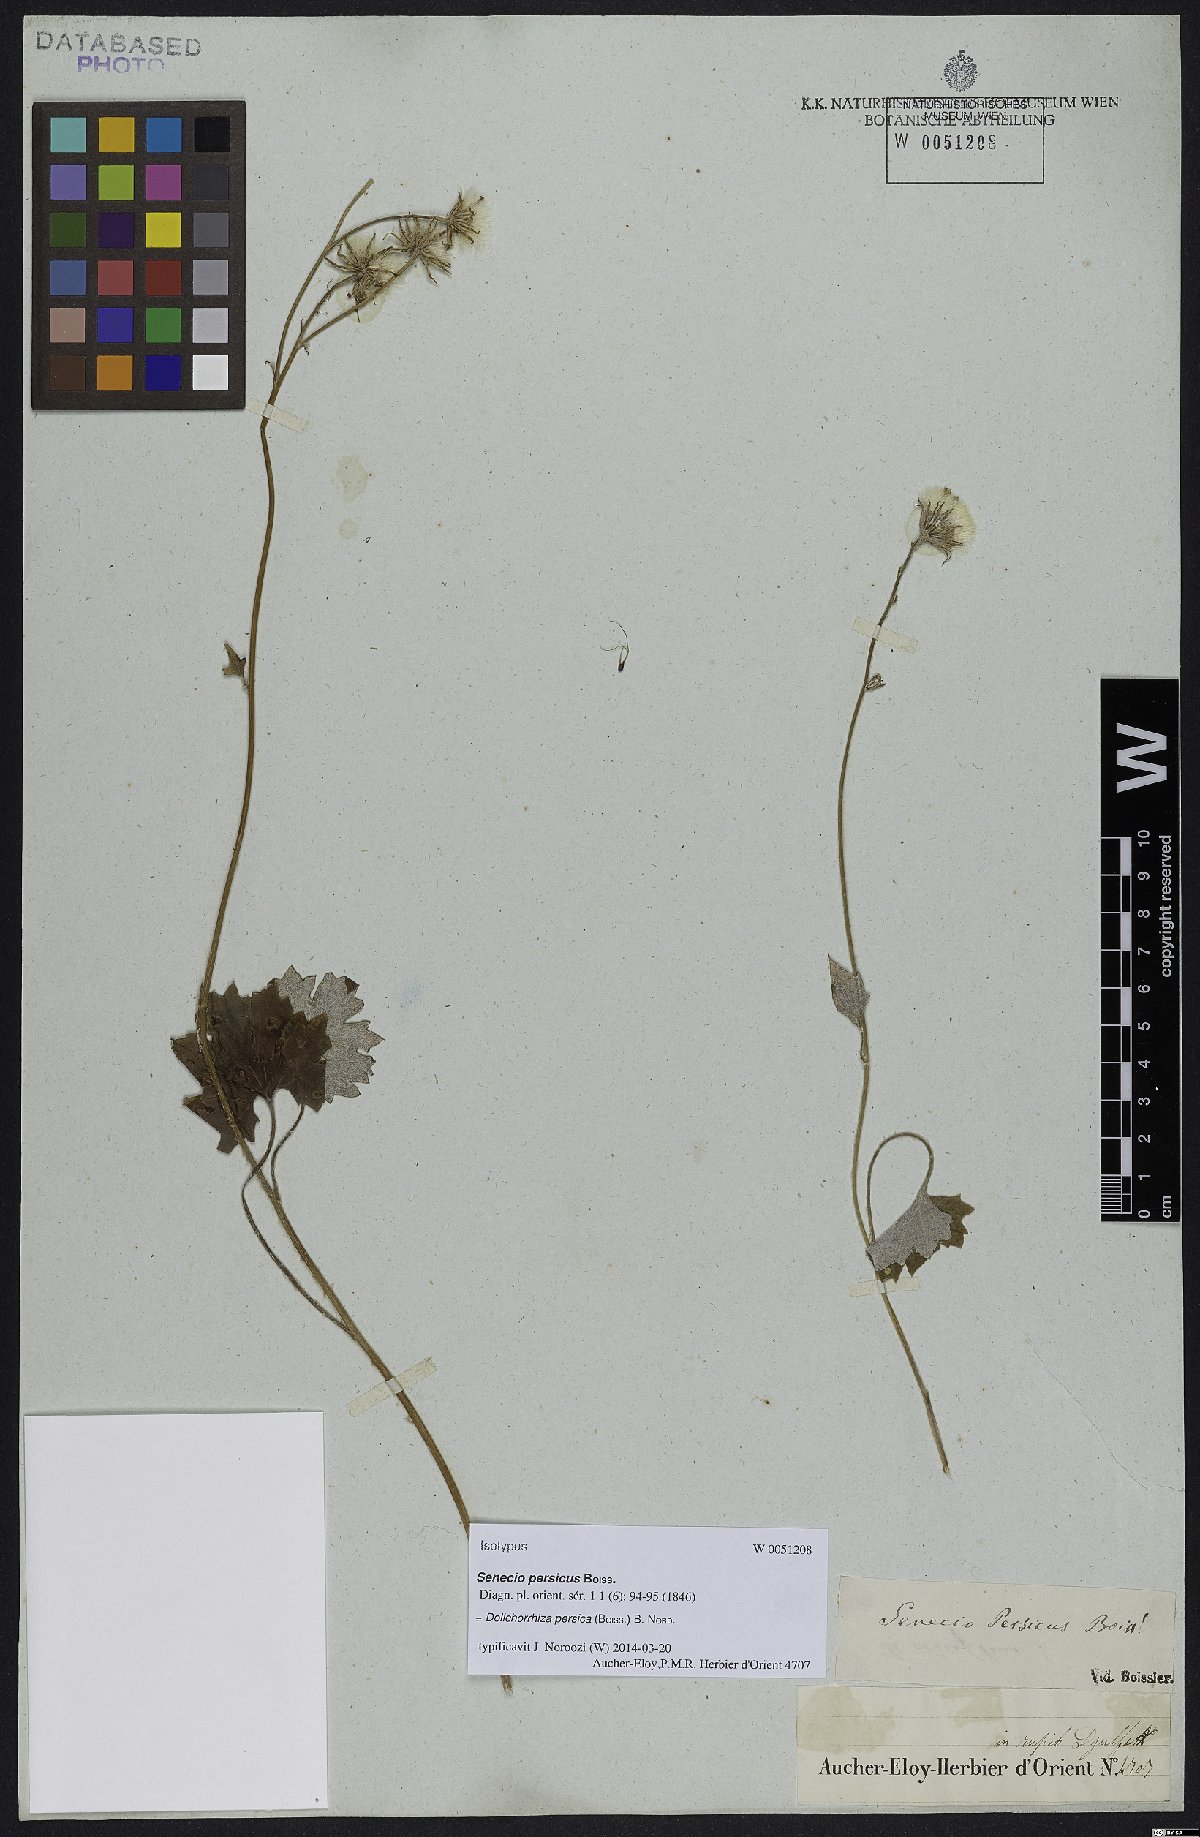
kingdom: Plantae
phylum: Tracheophyta
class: Magnoliopsida
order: Asterales
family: Asteraceae
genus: Dolichorrhiza
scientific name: Dolichorrhiza persica
